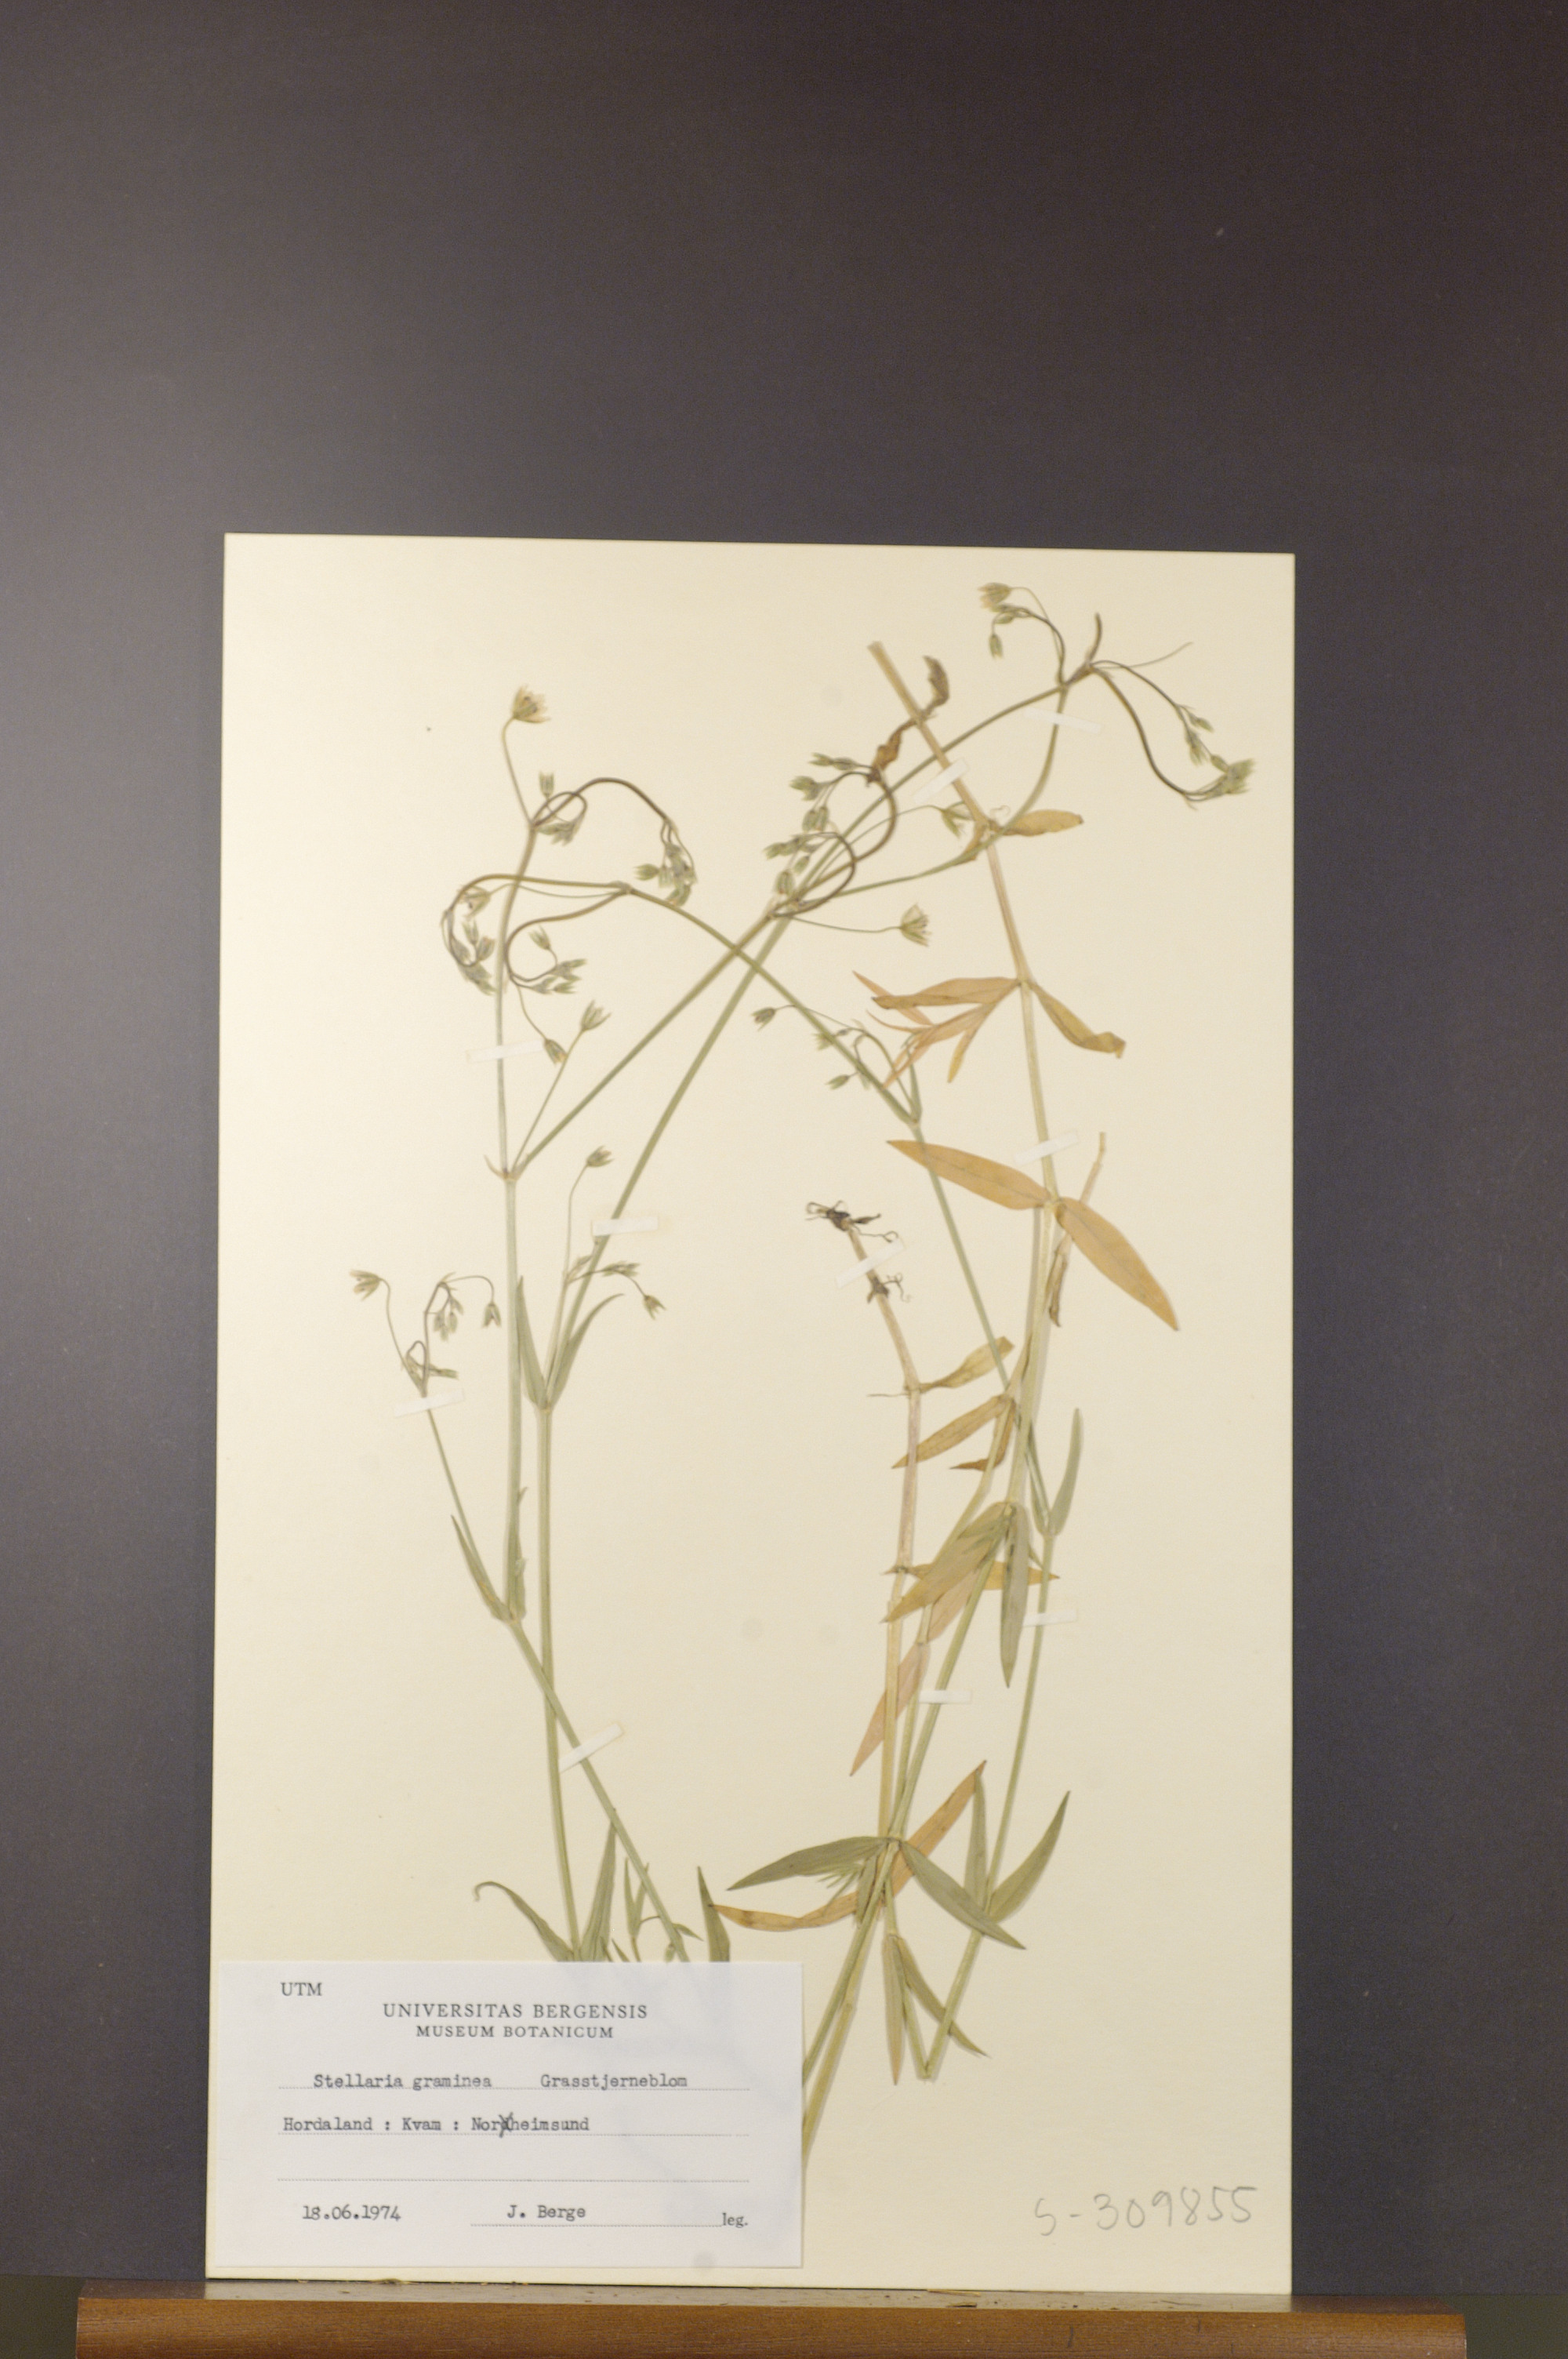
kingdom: Plantae
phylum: Tracheophyta
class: Magnoliopsida
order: Caryophyllales
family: Caryophyllaceae
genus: Stellaria
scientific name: Stellaria graminea
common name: Grass-like starwort
